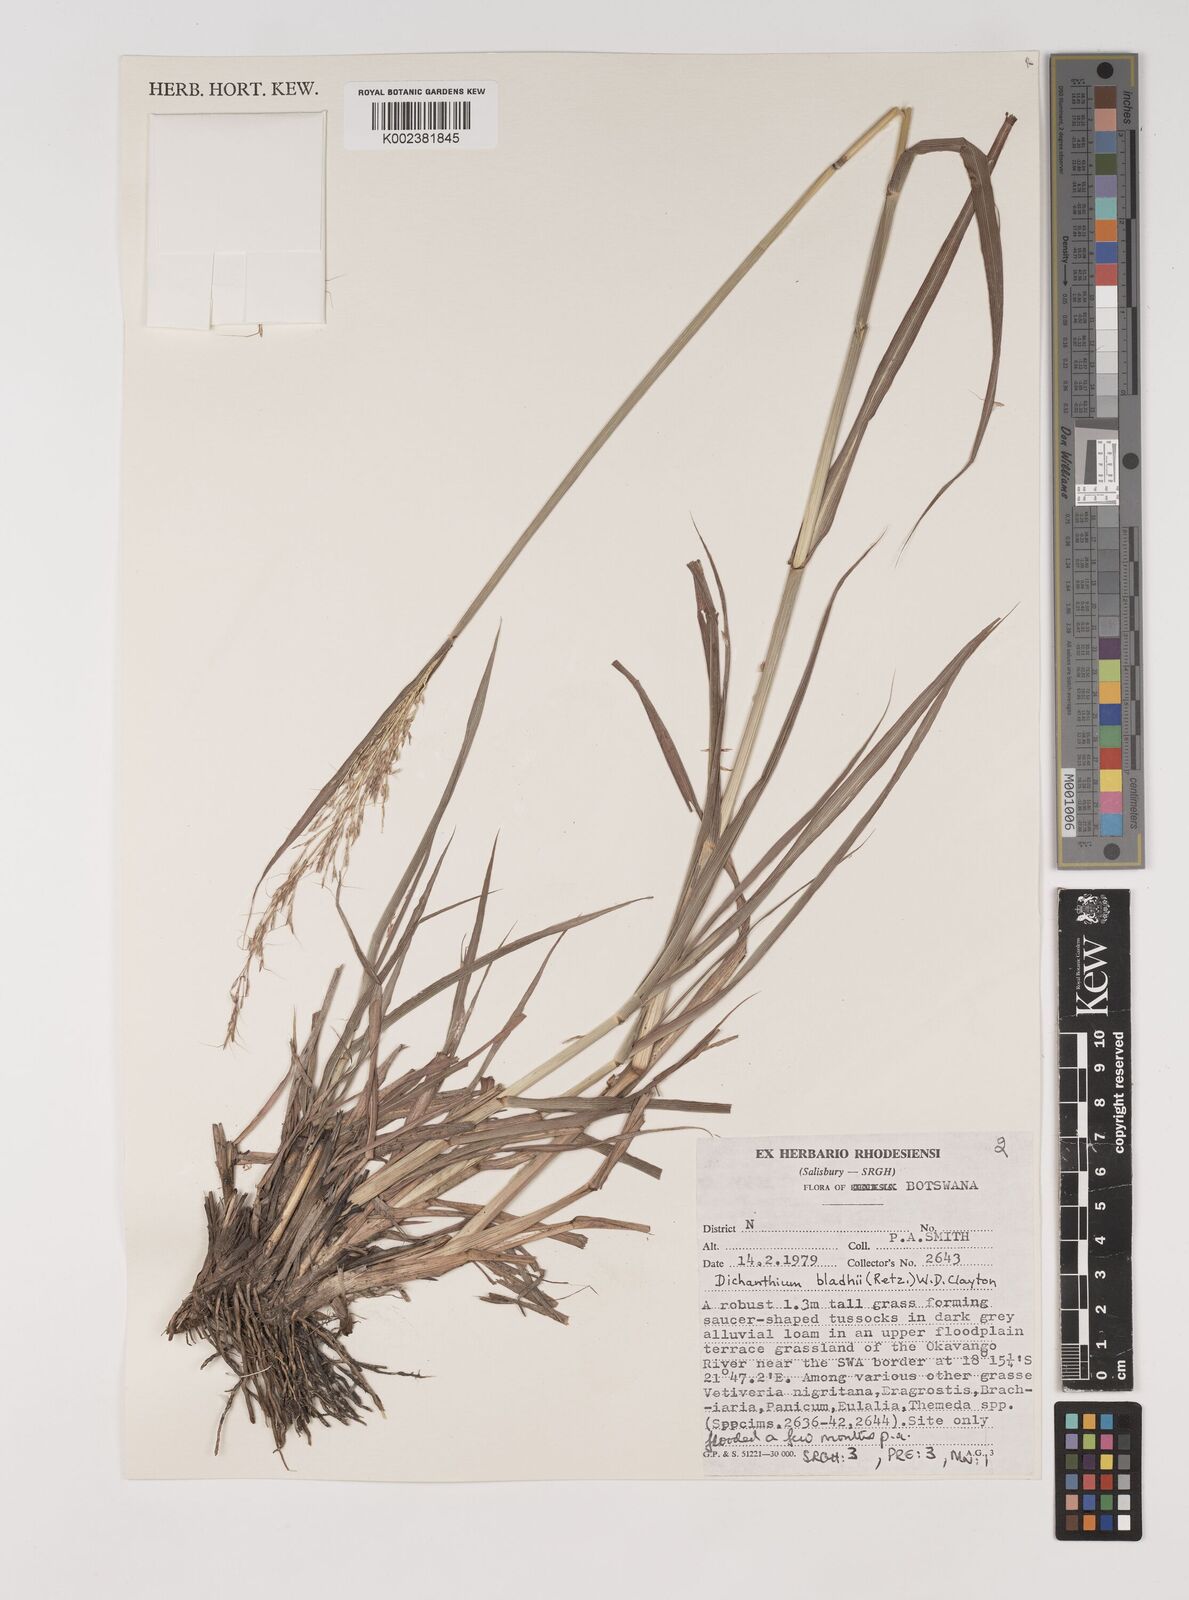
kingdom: Plantae
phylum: Tracheophyta
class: Liliopsida
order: Poales
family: Poaceae
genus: Bothriochloa
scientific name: Bothriochloa bladhii
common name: Caucasian bluestem
